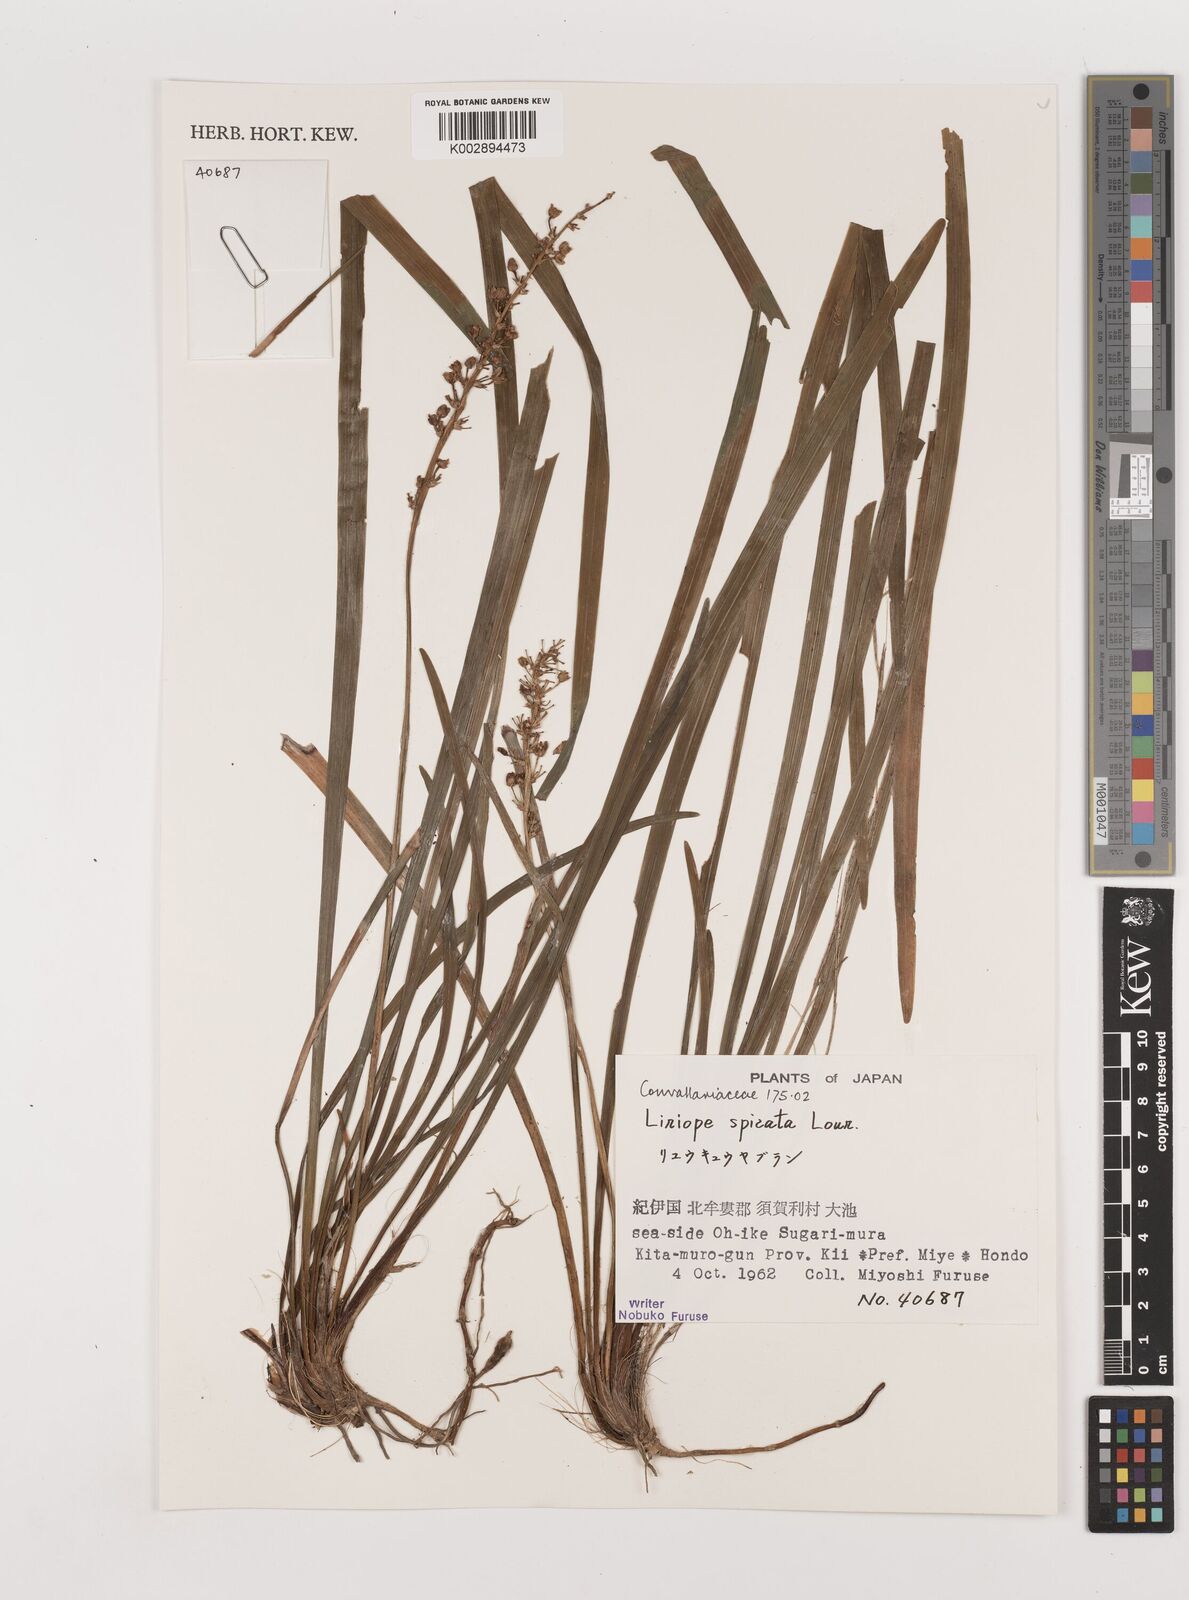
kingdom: Plantae
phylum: Tracheophyta
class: Liliopsida
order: Asparagales
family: Asparagaceae
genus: Liriope
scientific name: Liriope muscari
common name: Big blue lilyturf
